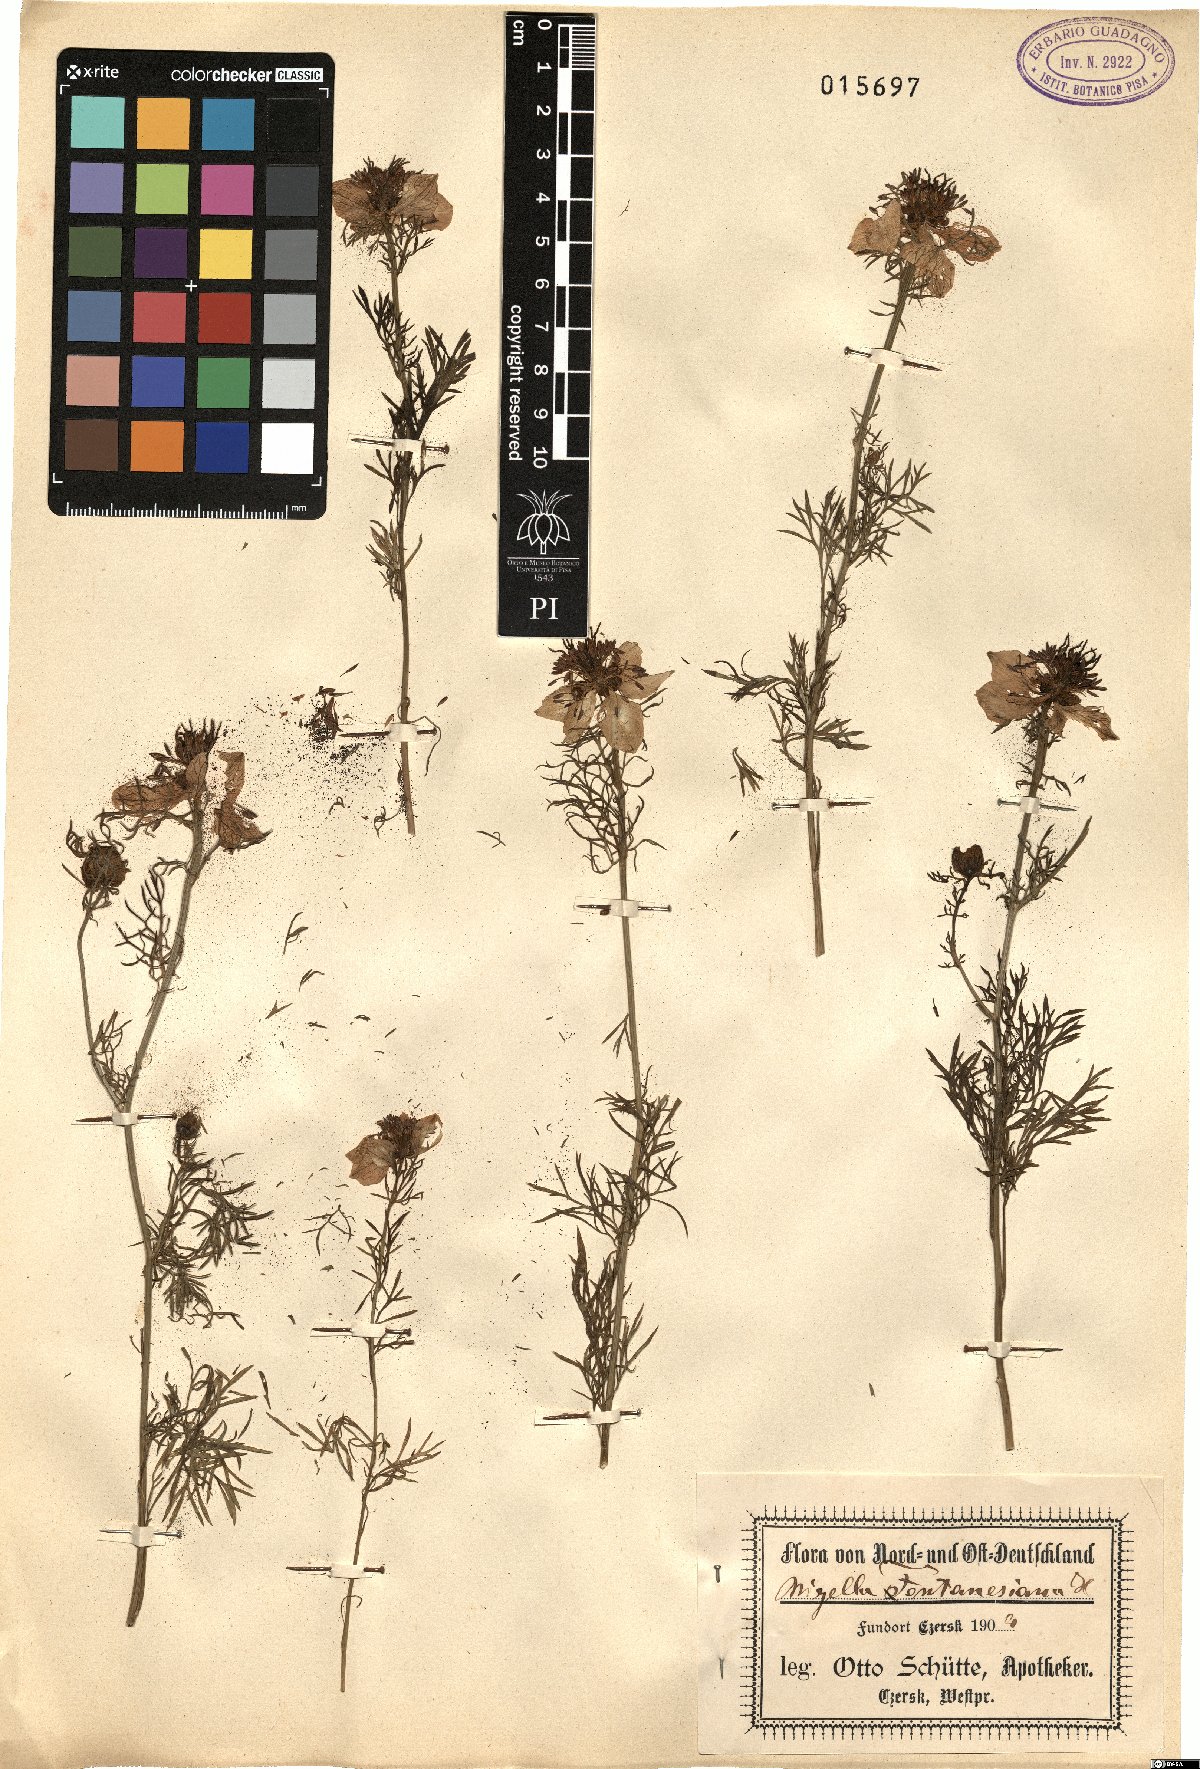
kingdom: Plantae
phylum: Tracheophyta
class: Magnoliopsida
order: Ranunculales
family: Ranunculaceae
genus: Nigella
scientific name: Nigella
